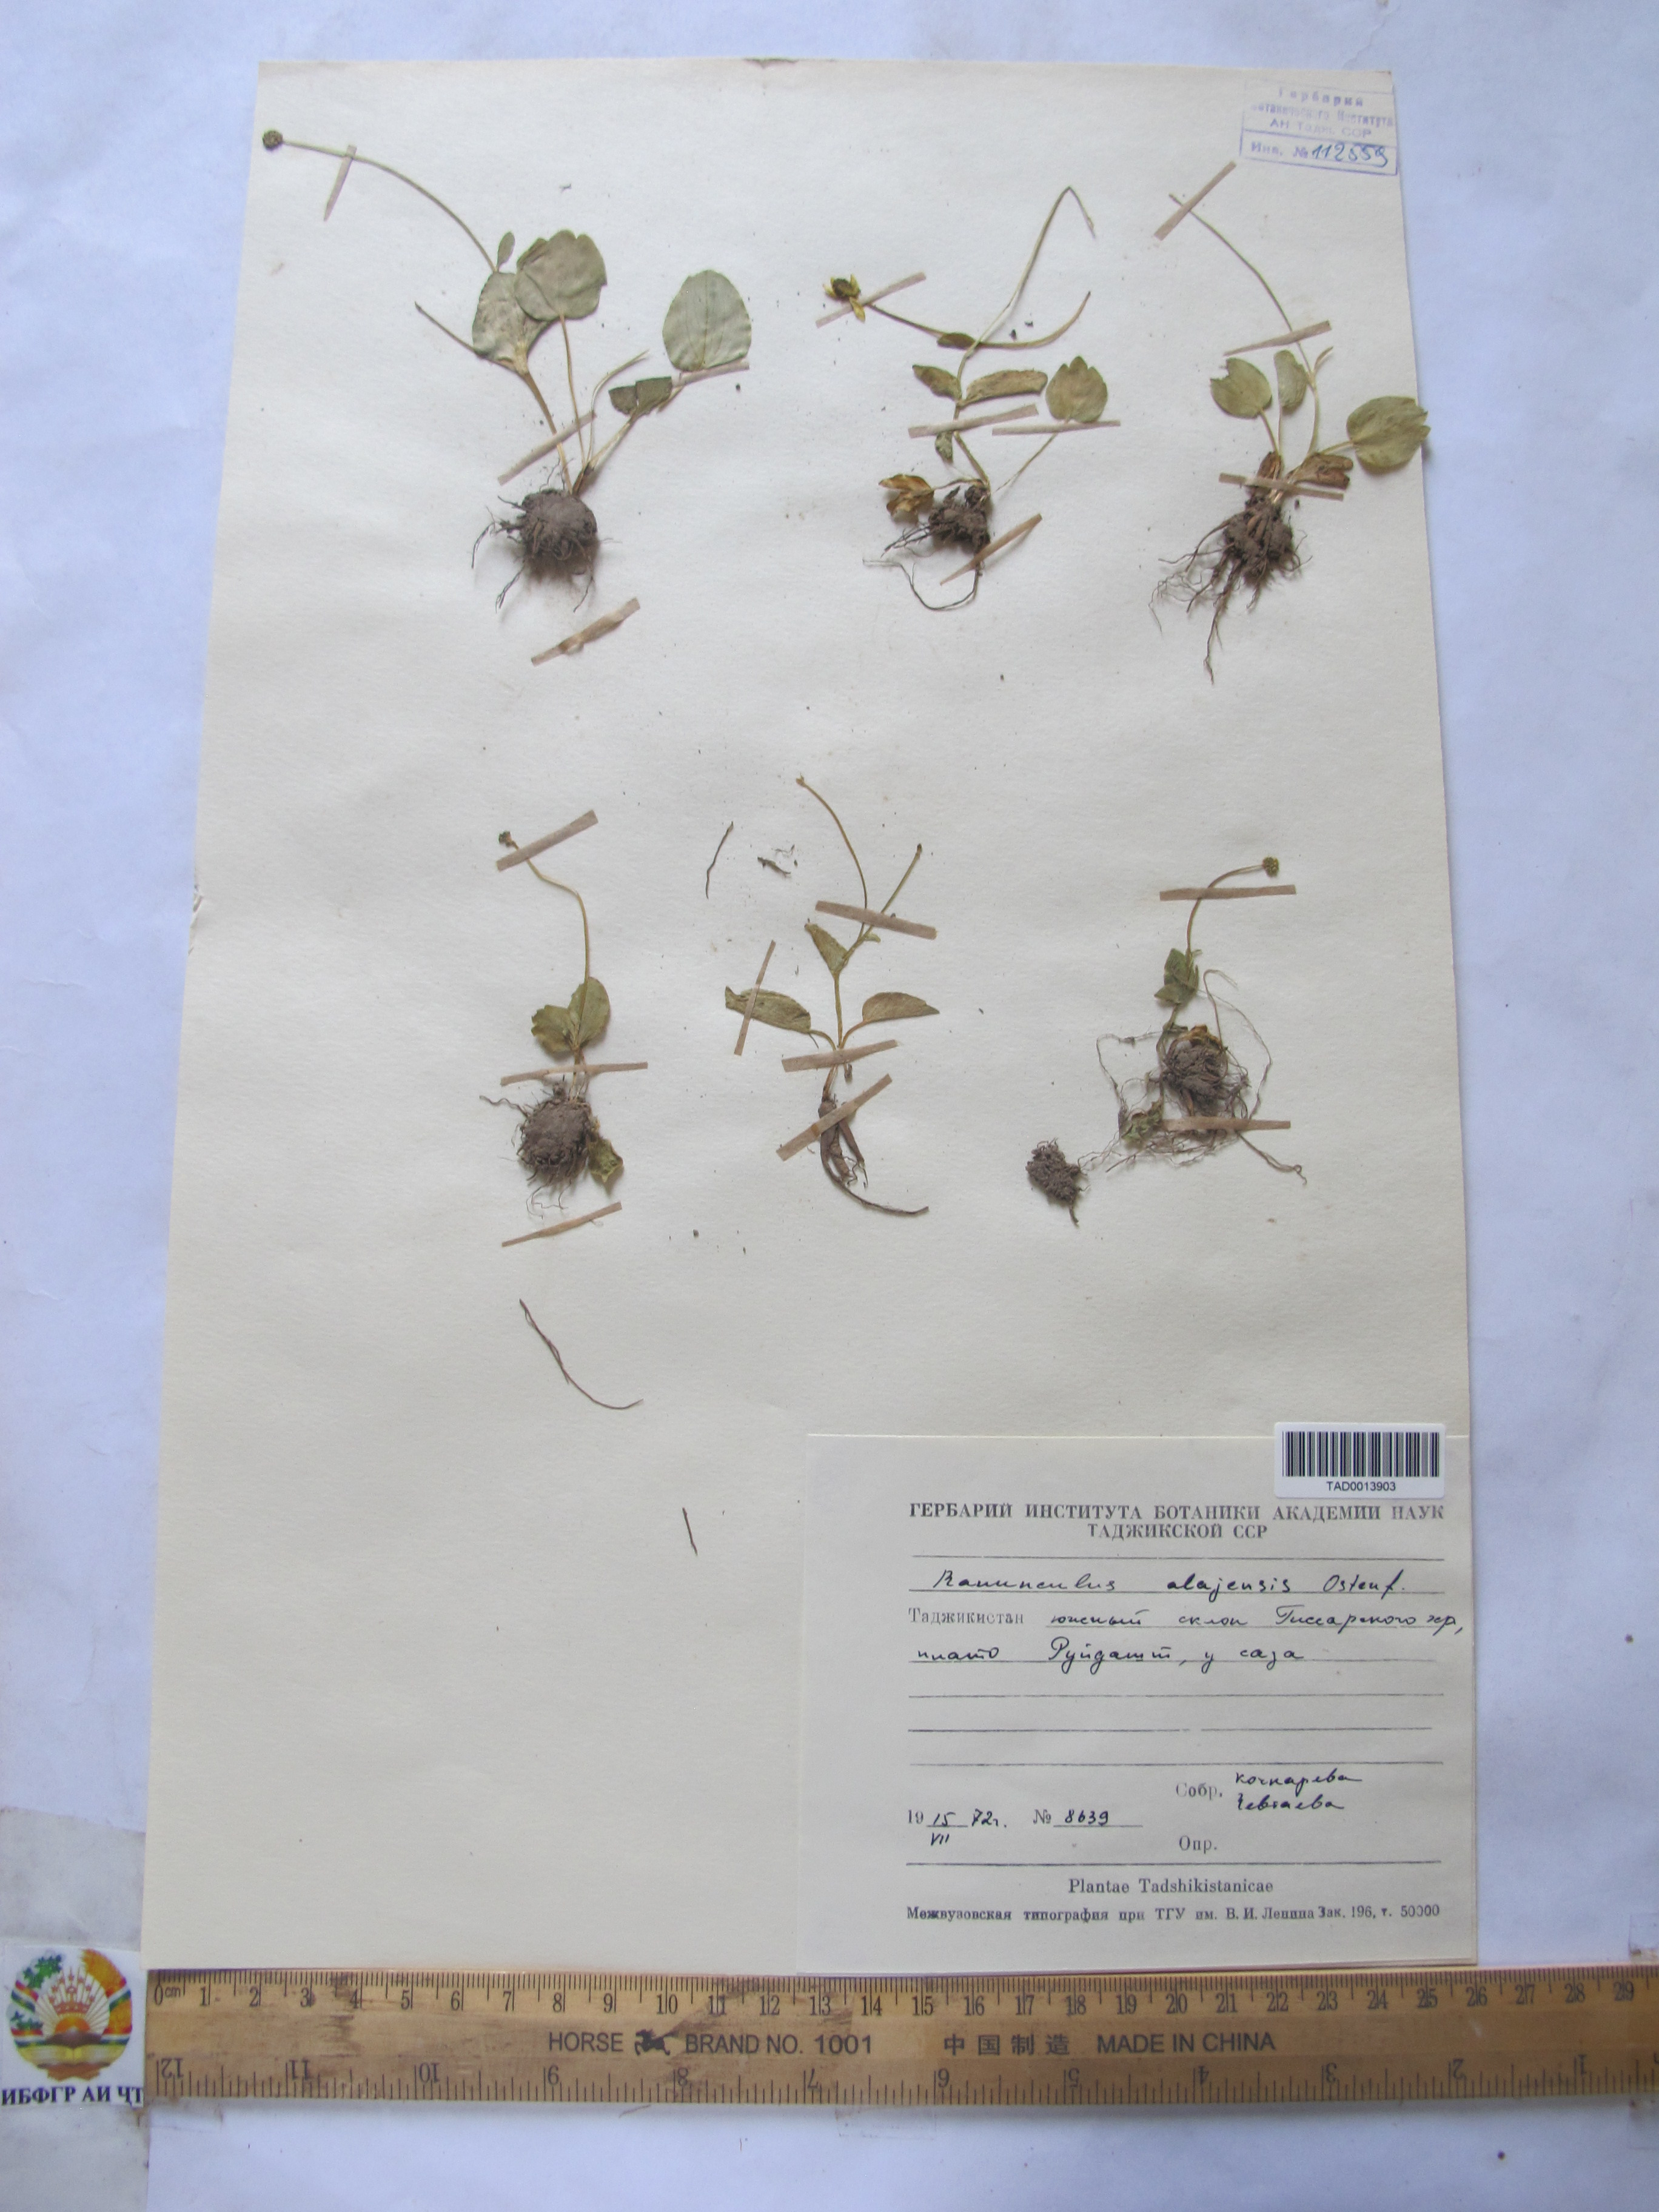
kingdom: Plantae
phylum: Tracheophyta
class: Magnoliopsida
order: Ranunculales
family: Ranunculaceae
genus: Ranunculus
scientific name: Ranunculus alaiensis
